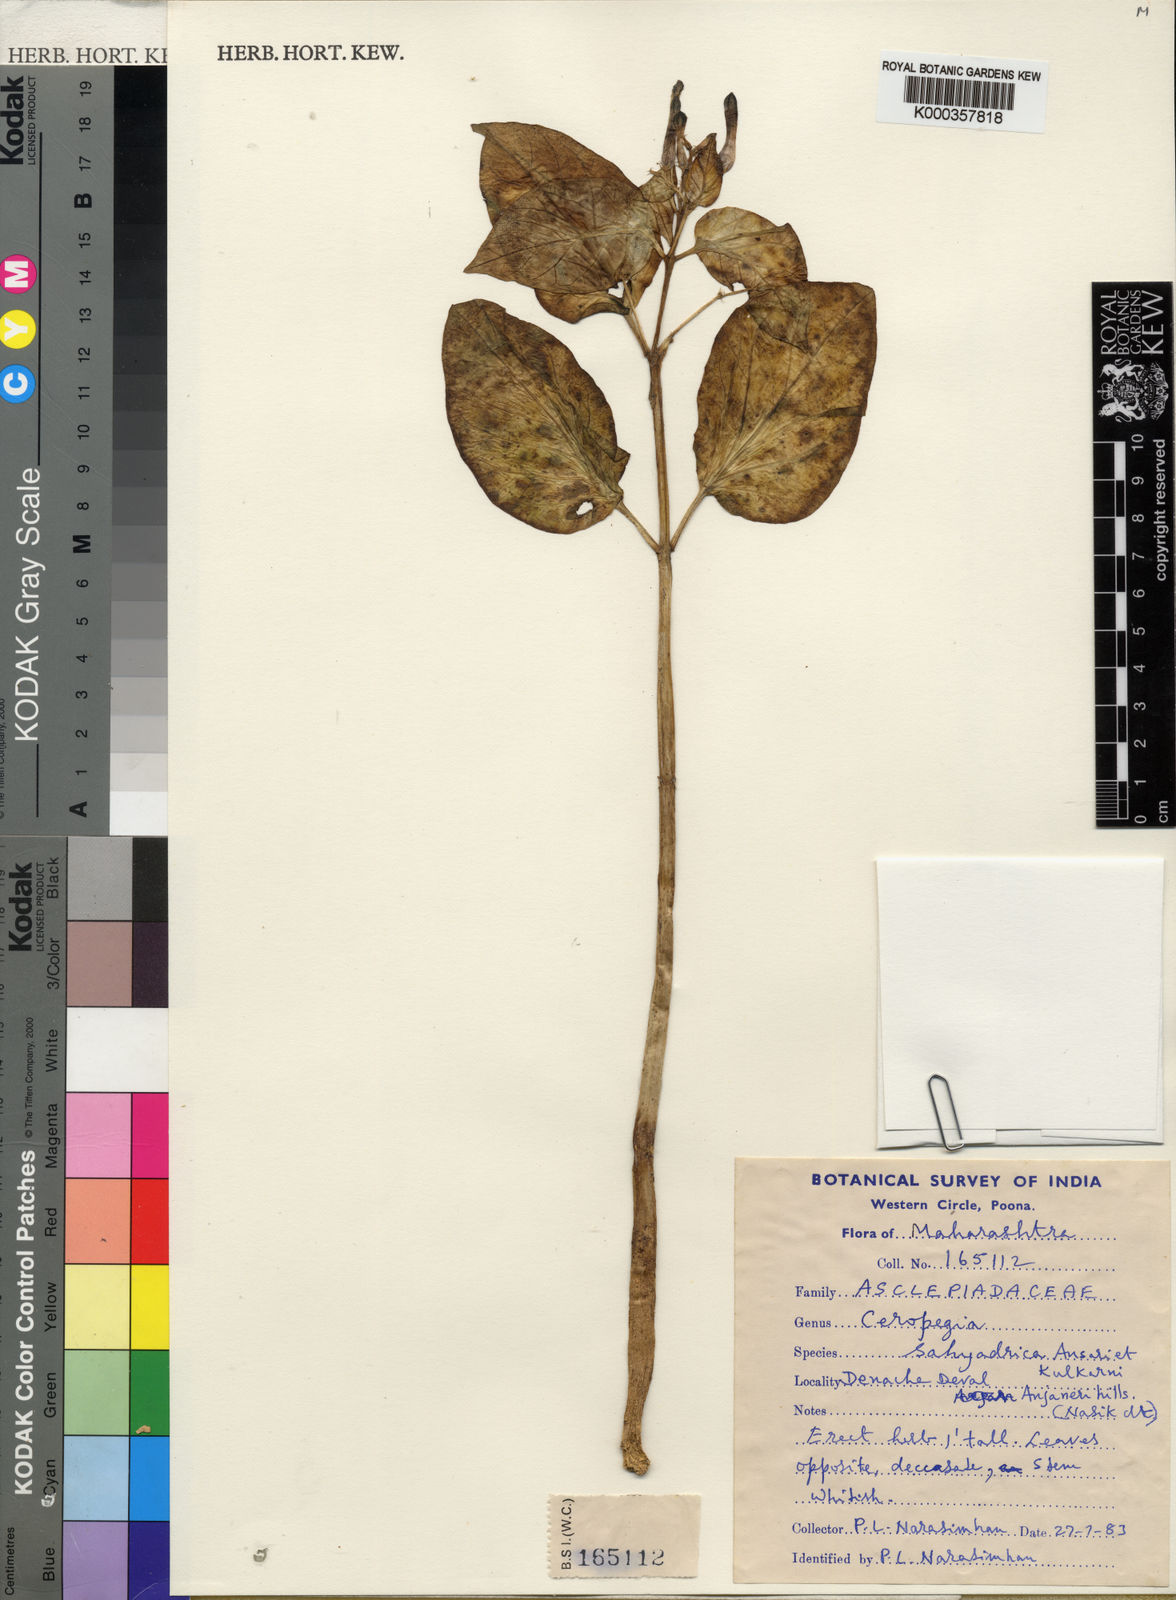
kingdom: Plantae
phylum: Tracheophyta
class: Magnoliopsida
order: Gentianales
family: Apocynaceae
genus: Ceropegia
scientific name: Ceropegia lawii
